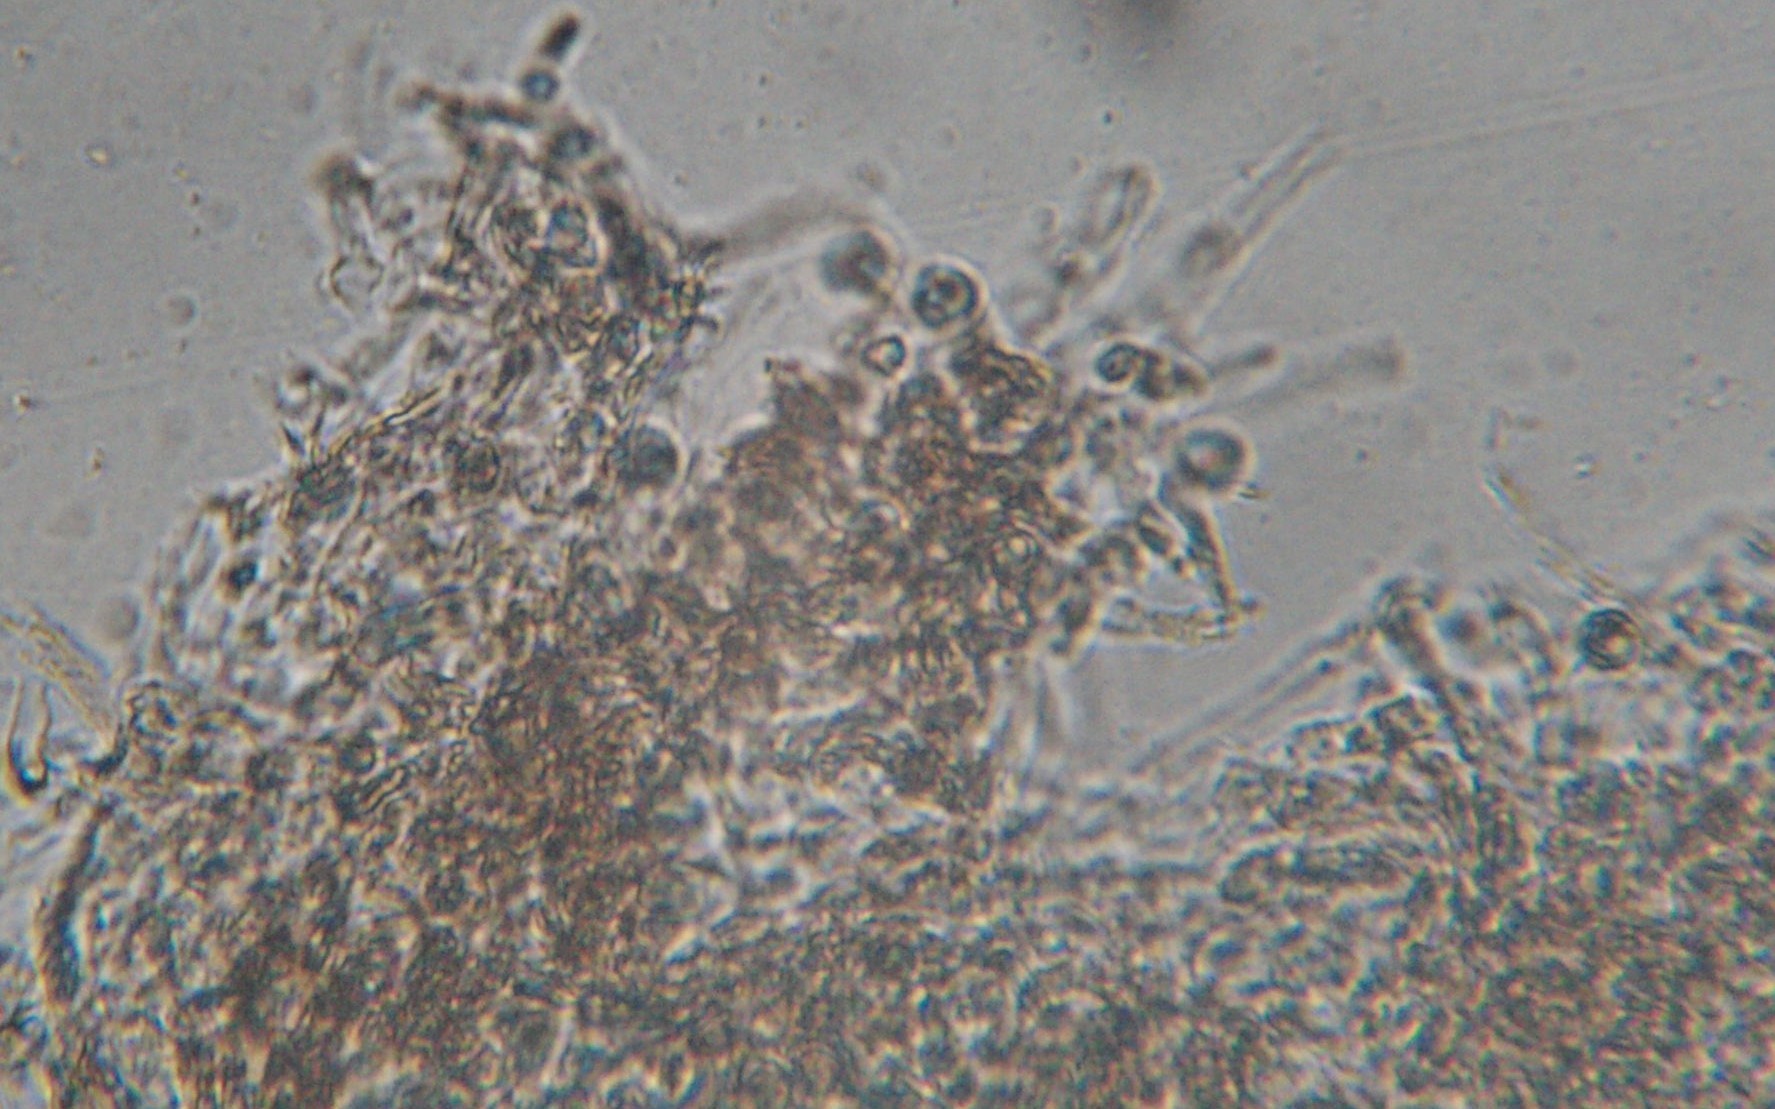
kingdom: Fungi
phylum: Basidiomycota
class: Agaricomycetes
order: Cantharellales
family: Hydnaceae
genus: Clavulina
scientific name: Clavulina
